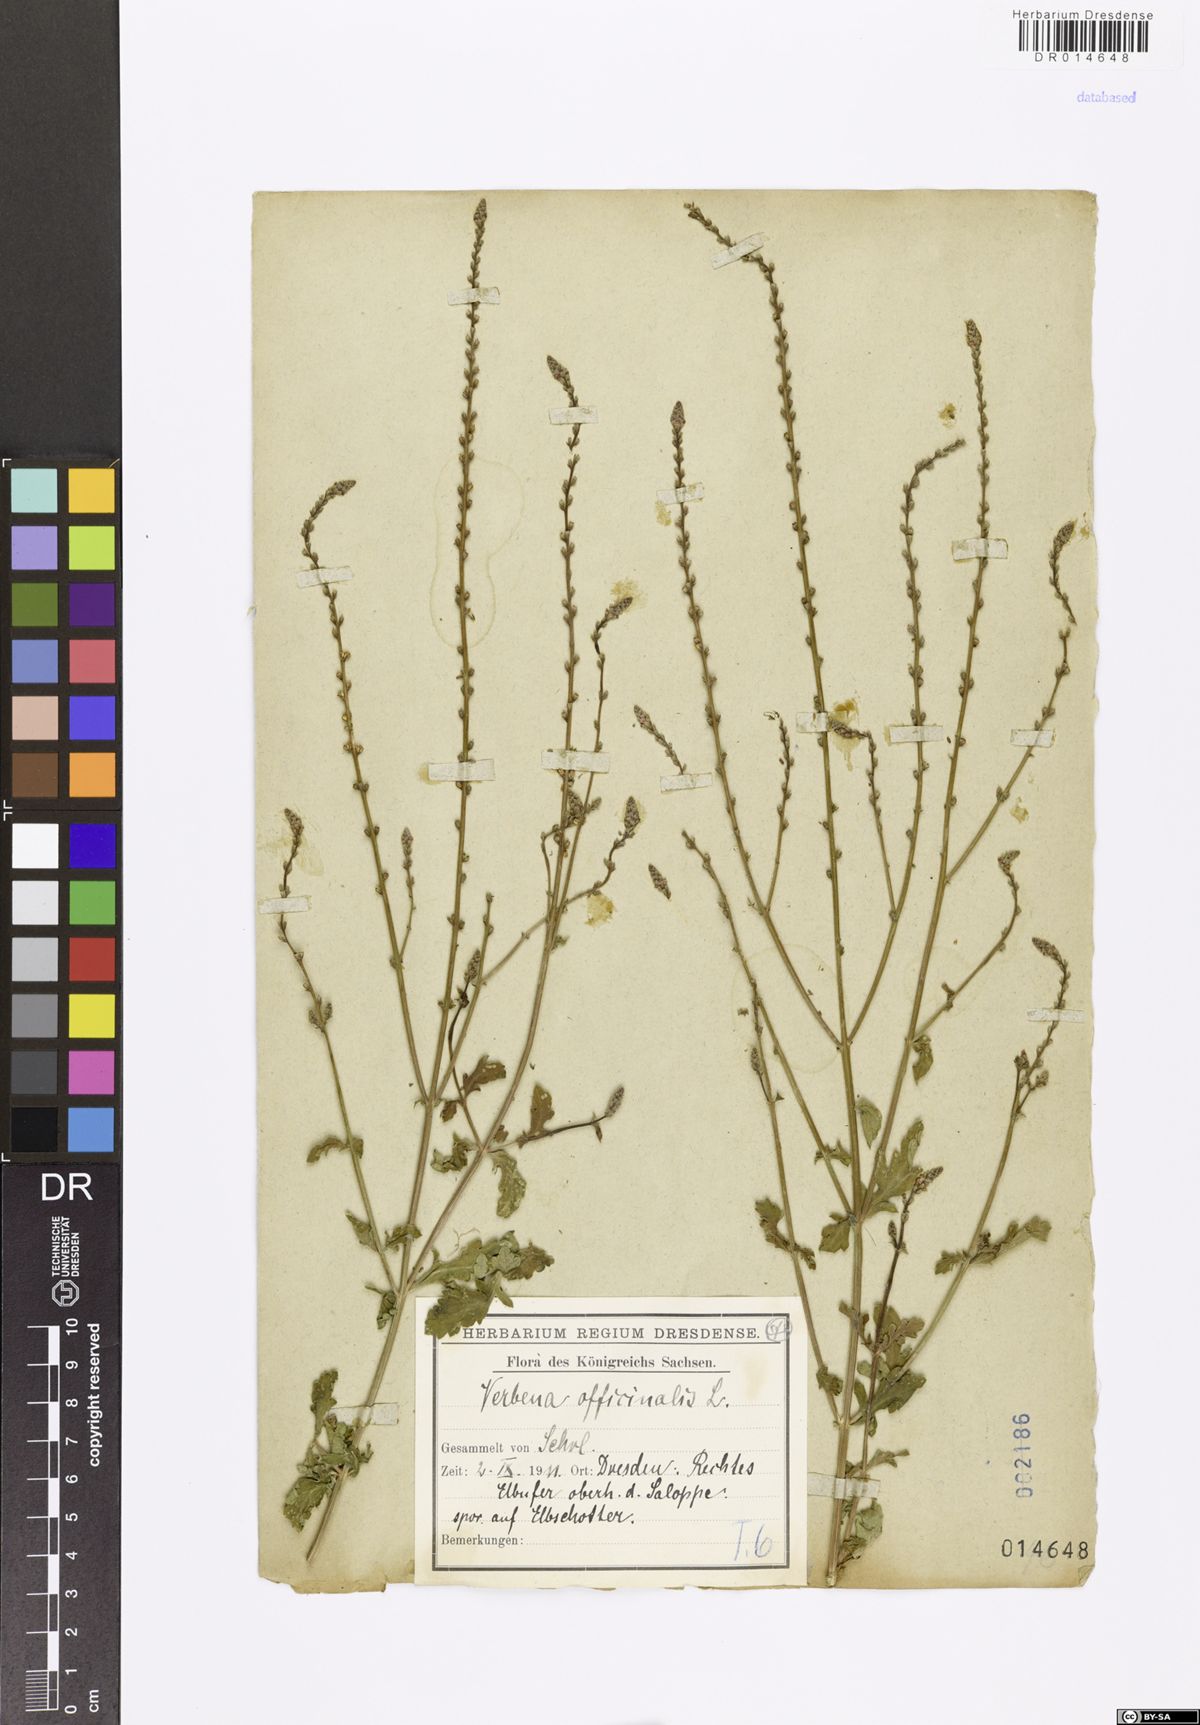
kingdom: Plantae
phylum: Tracheophyta
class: Magnoliopsida
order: Lamiales
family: Verbenaceae
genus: Verbena
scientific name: Verbena officinalis
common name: Vervain
